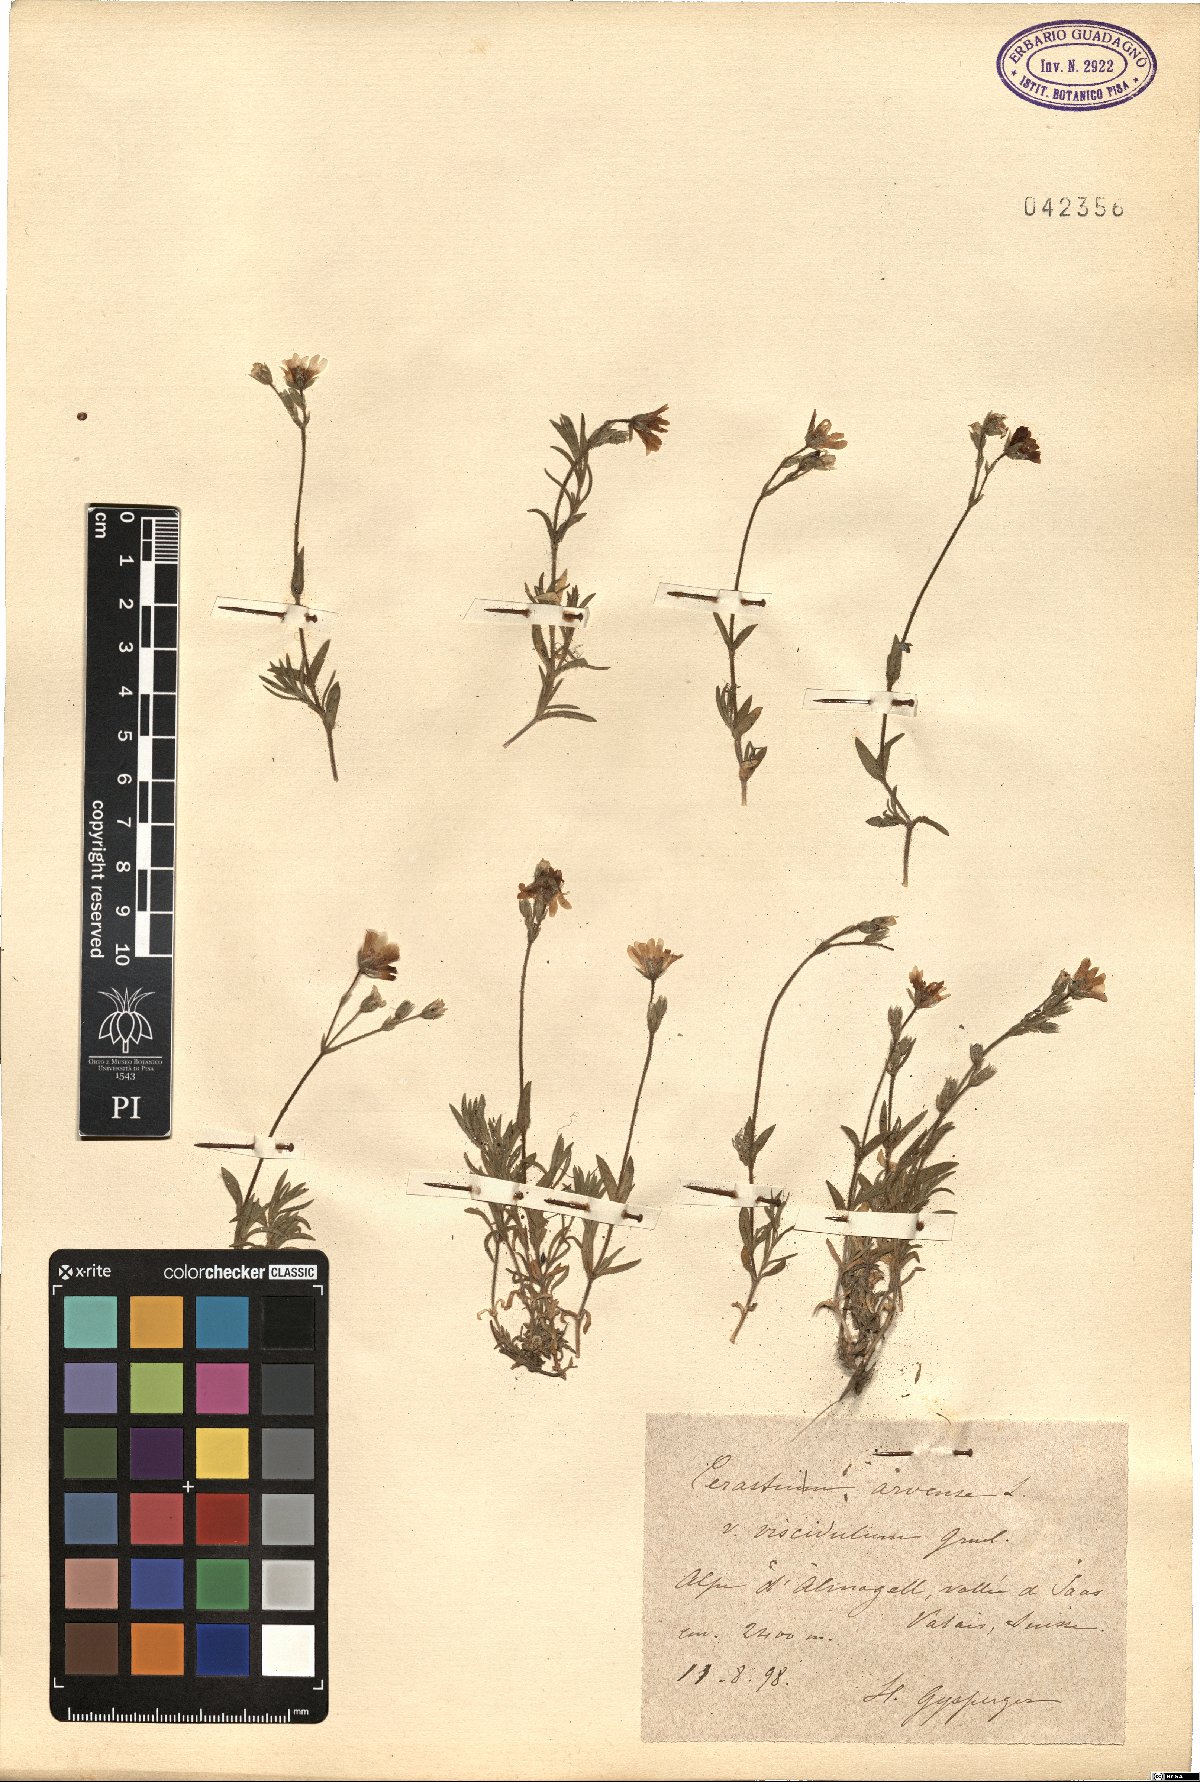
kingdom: Plantae
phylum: Tracheophyta
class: Magnoliopsida
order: Caryophyllales
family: Caryophyllaceae
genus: Cerastium
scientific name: Cerastium arvense
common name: Field mouse-ear
